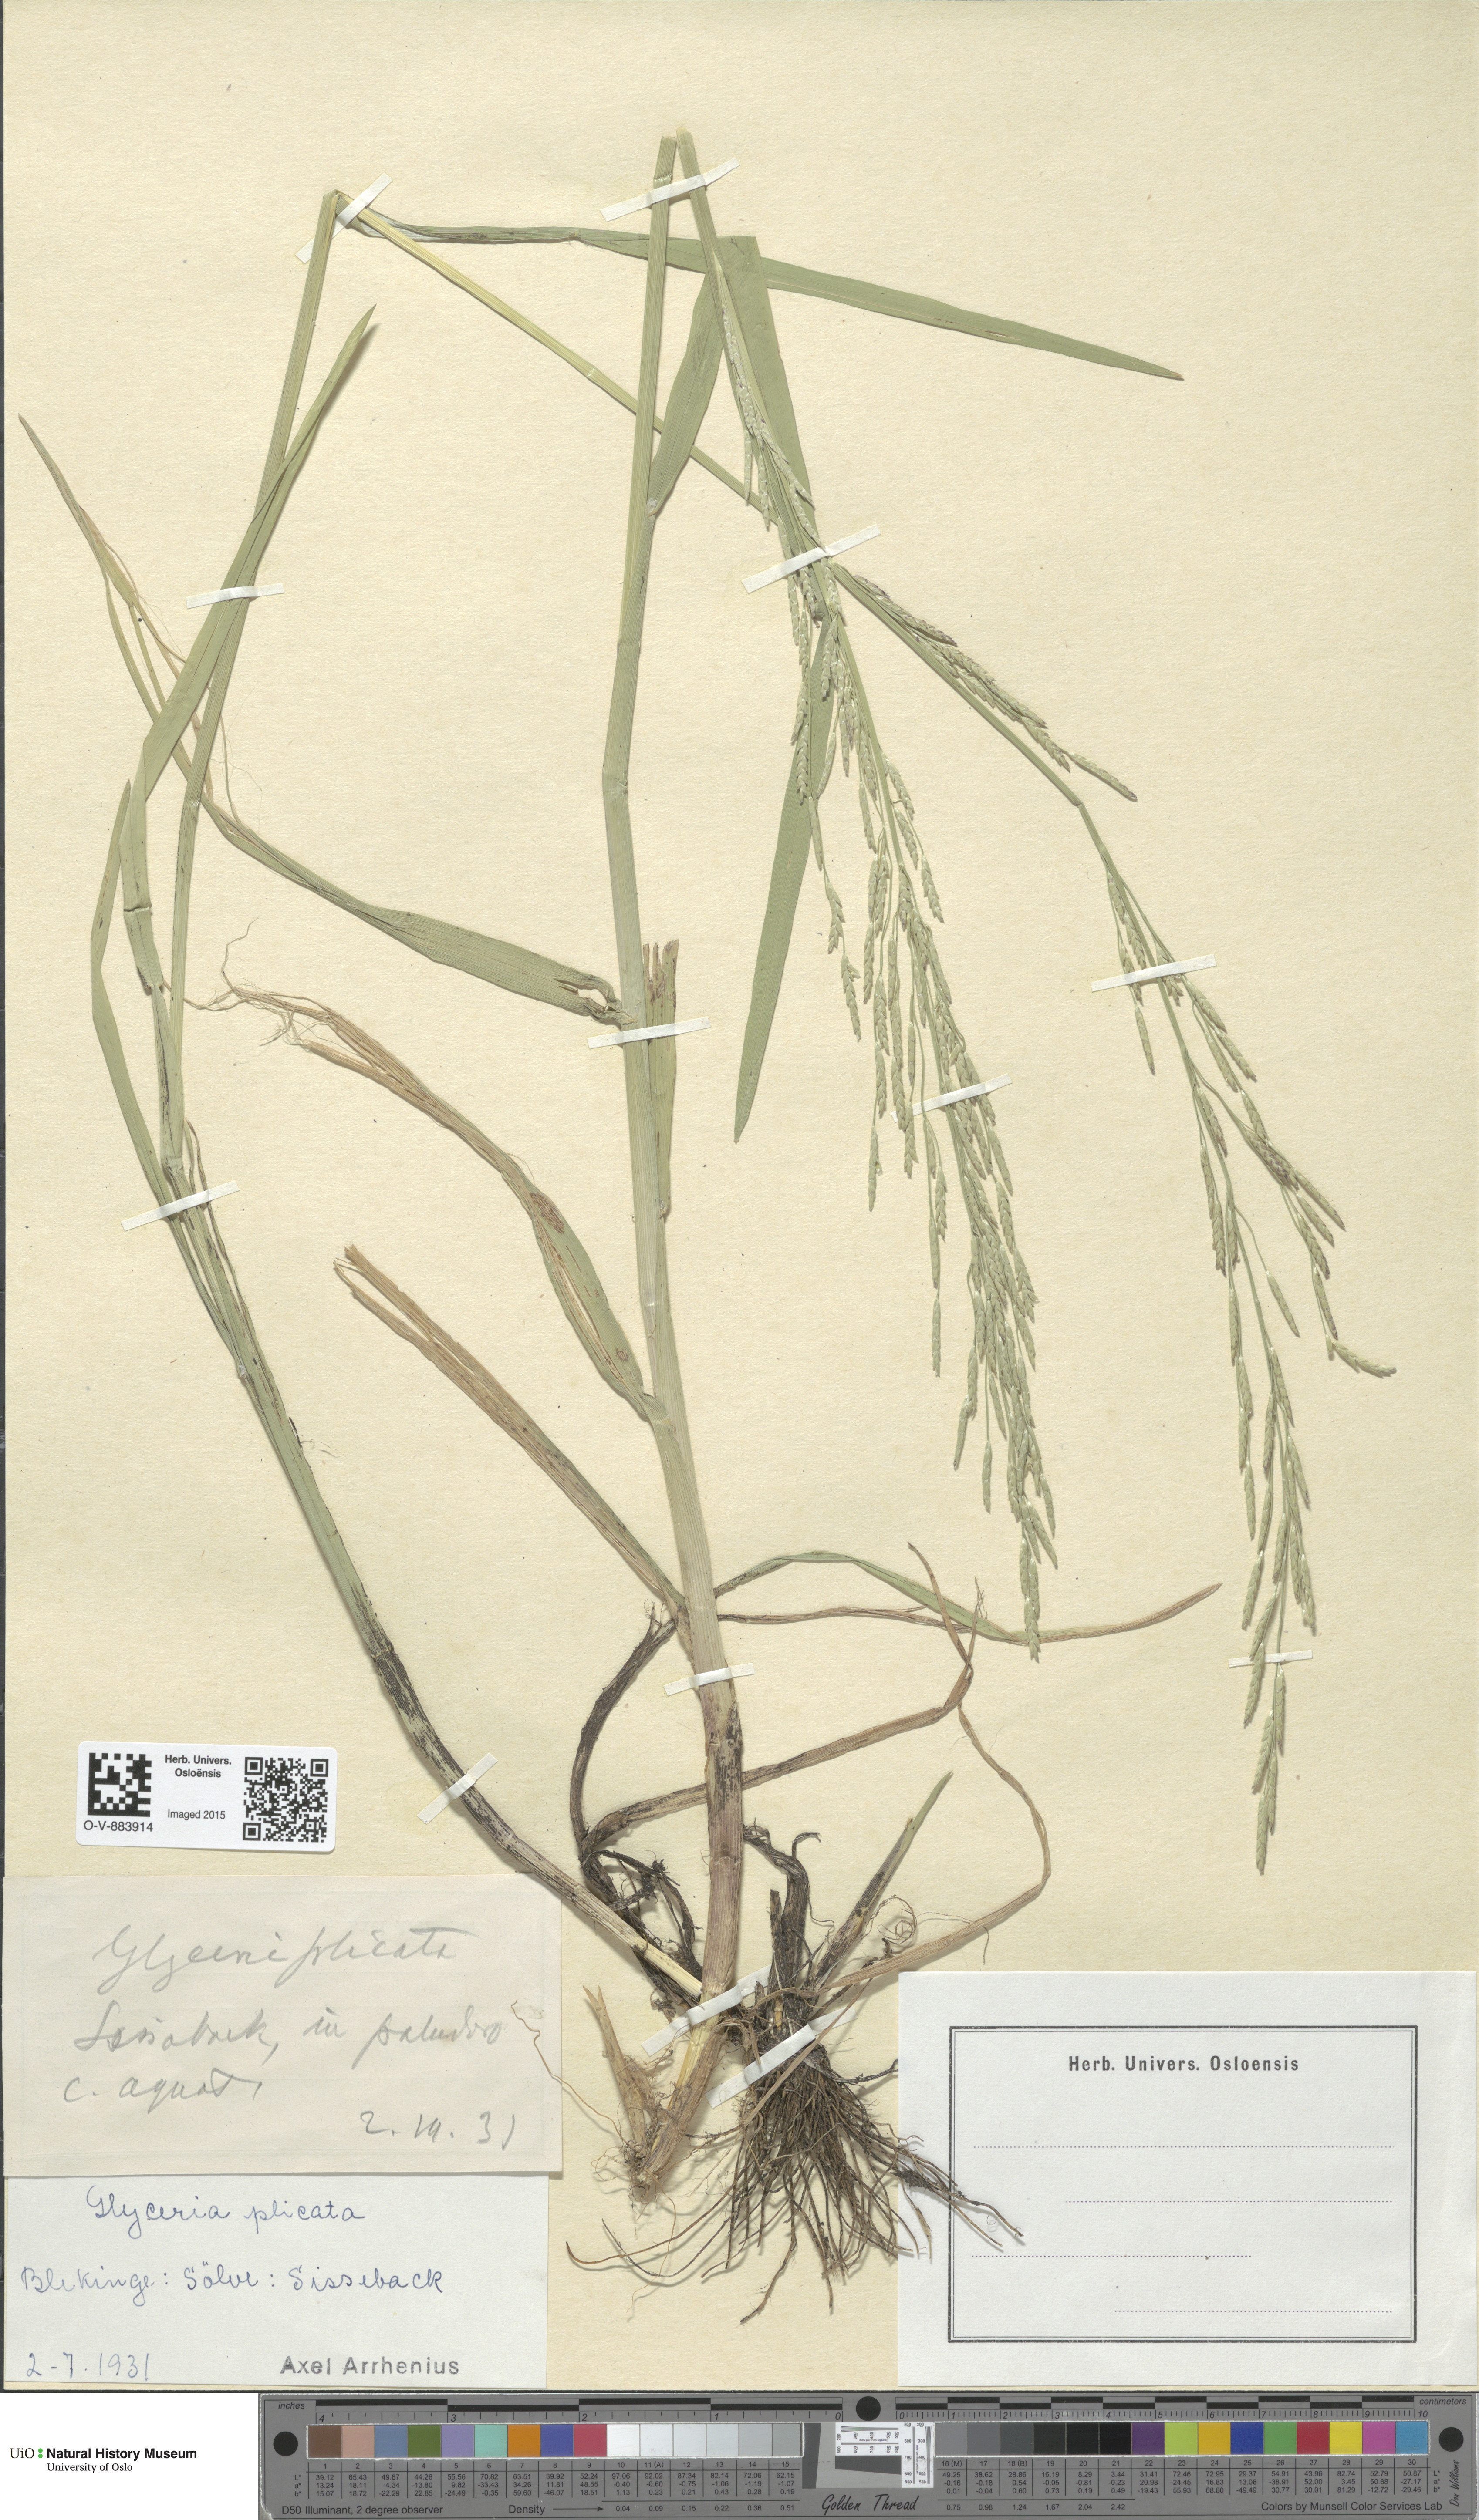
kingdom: Plantae
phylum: Tracheophyta
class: Liliopsida
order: Poales
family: Poaceae
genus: Glyceria
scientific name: Glyceria notata
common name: Plicate sweet-grass
